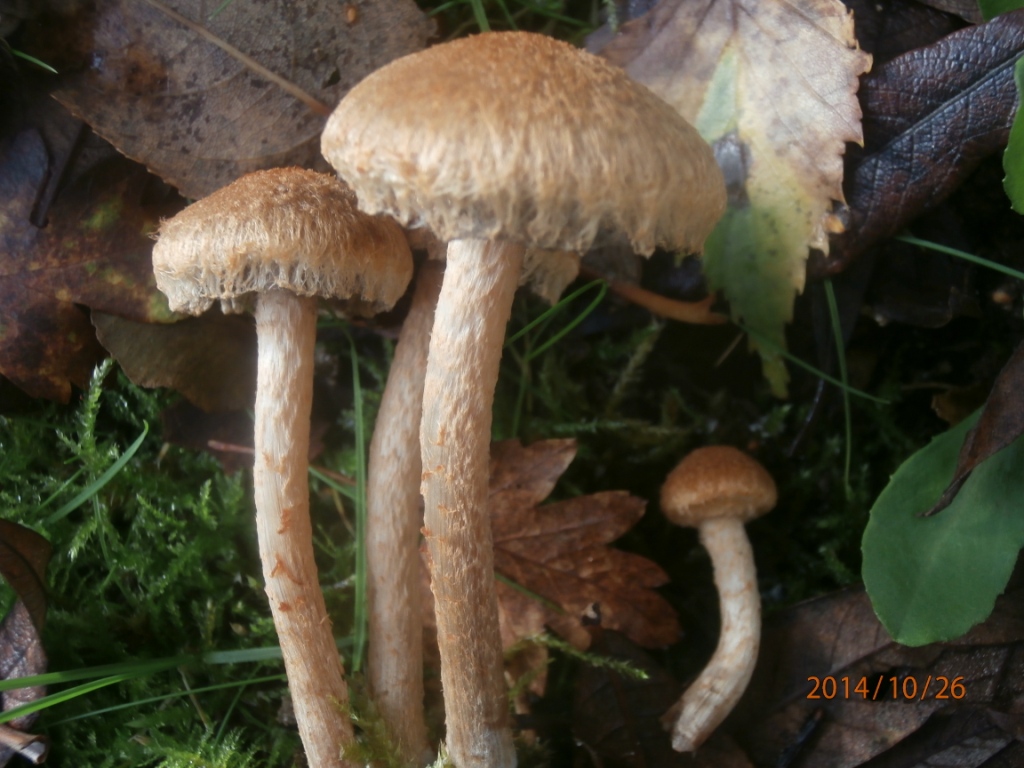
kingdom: Fungi
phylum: Basidiomycota
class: Agaricomycetes
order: Agaricales
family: Psathyrellaceae
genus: Lacrymaria
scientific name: Lacrymaria pyrotricha
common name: ildhåret mørkhat
